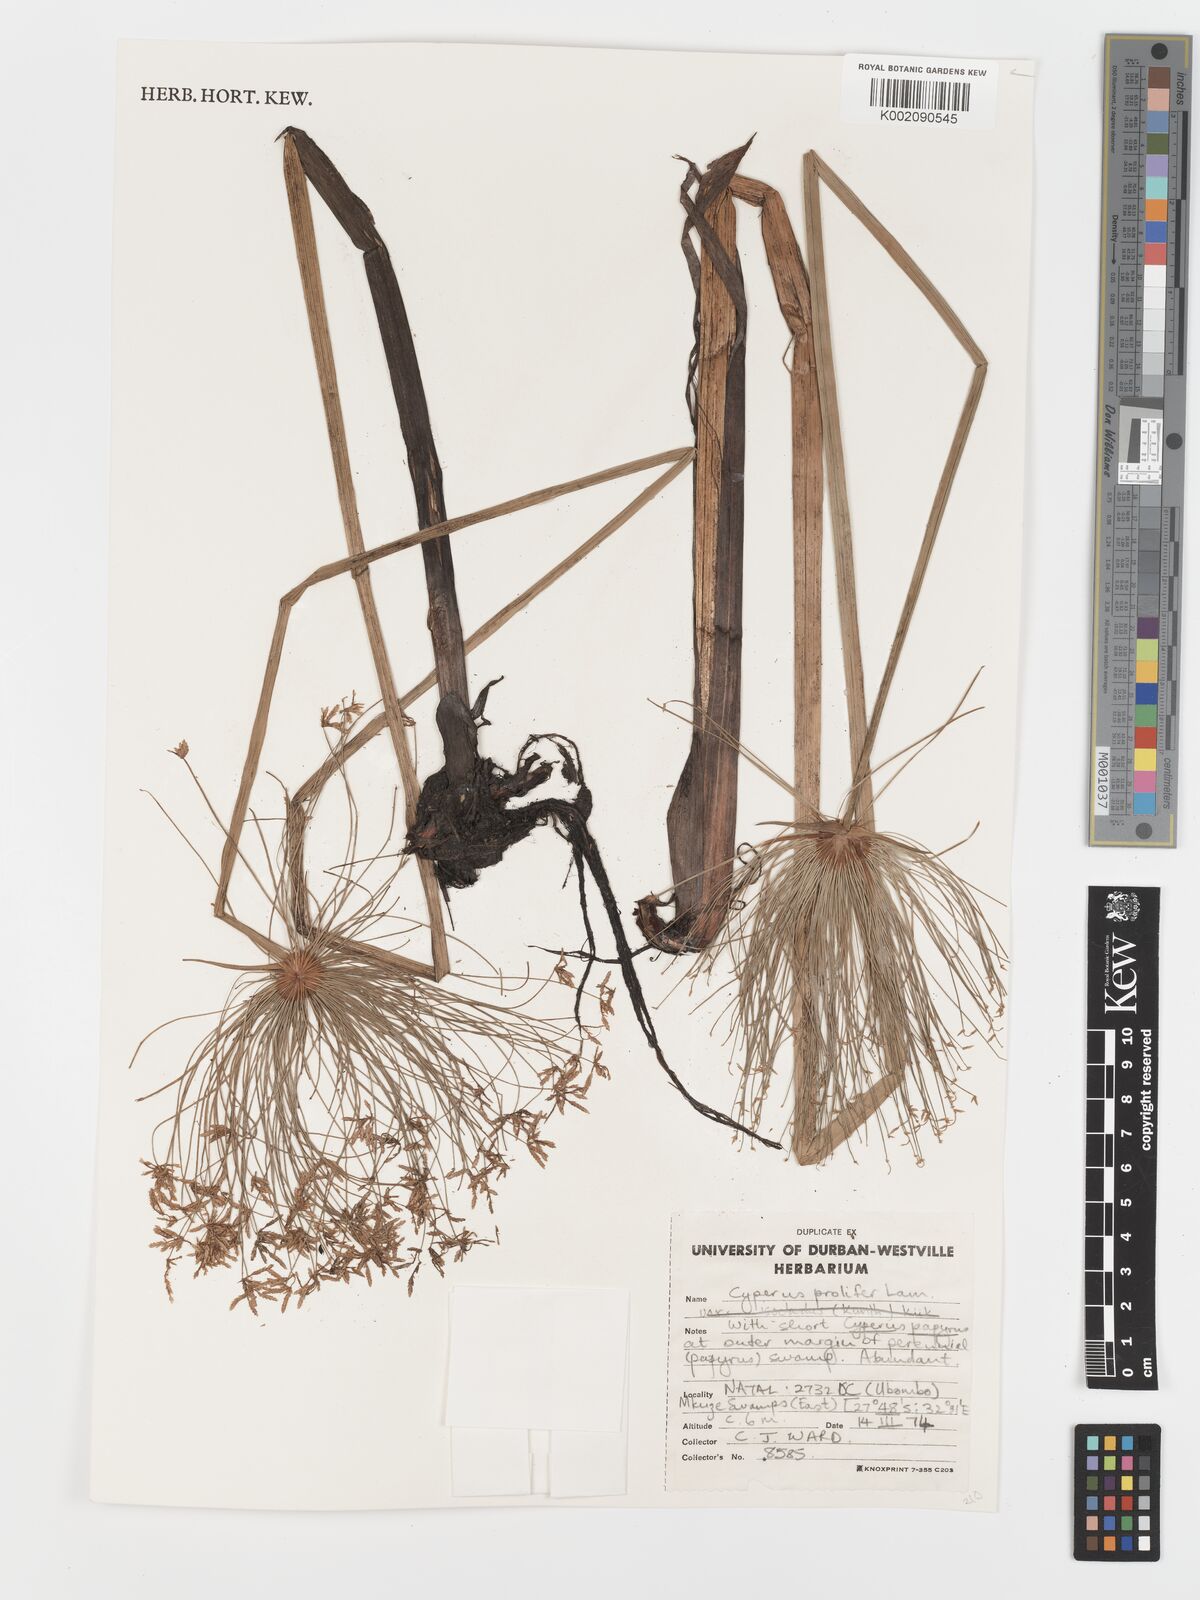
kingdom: Plantae
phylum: Tracheophyta
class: Liliopsida
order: Poales
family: Cyperaceae
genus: Cyperus
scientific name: Cyperus prolifer
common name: Miniature flatsedge
